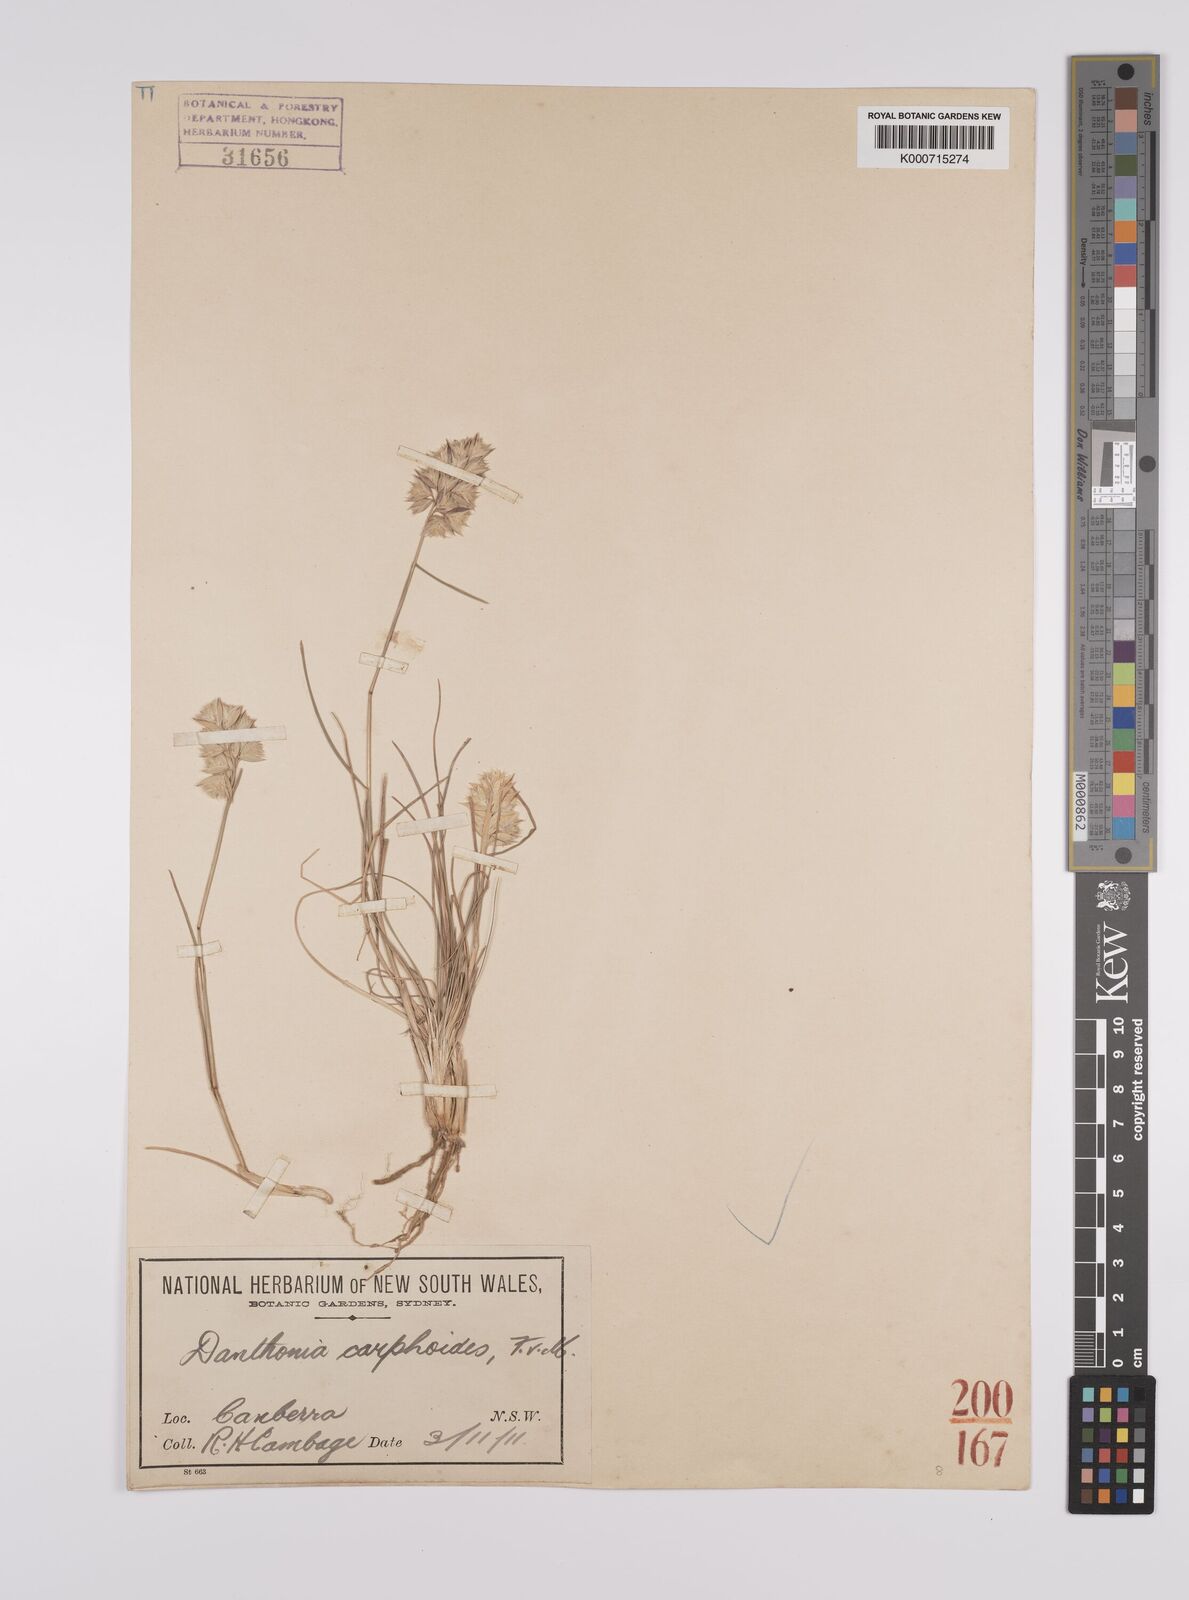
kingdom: Plantae
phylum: Tracheophyta
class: Liliopsida
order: Poales
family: Poaceae
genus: Rytidosperma
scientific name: Rytidosperma carphoides
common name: Short wallaby grass
